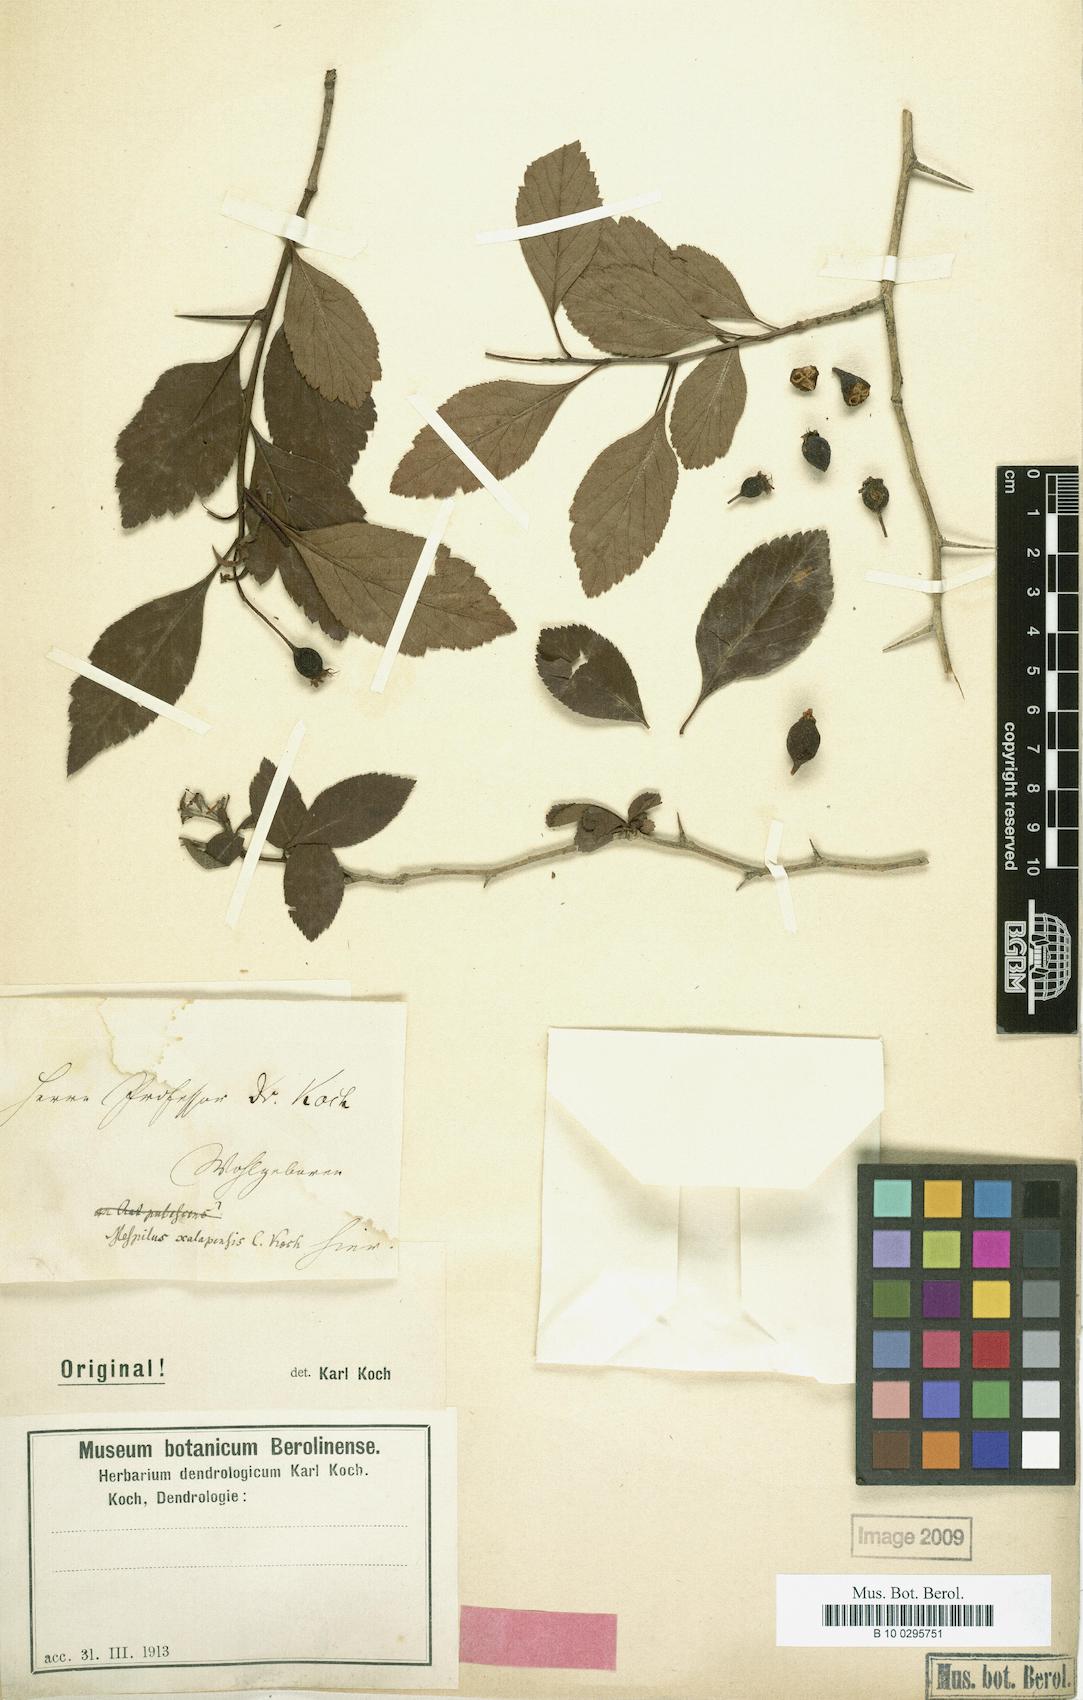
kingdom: Plantae
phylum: Tracheophyta
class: Magnoliopsida
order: Rosales
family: Rosaceae
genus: Crataegus
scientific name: Crataegus Mespilus xalapensis
